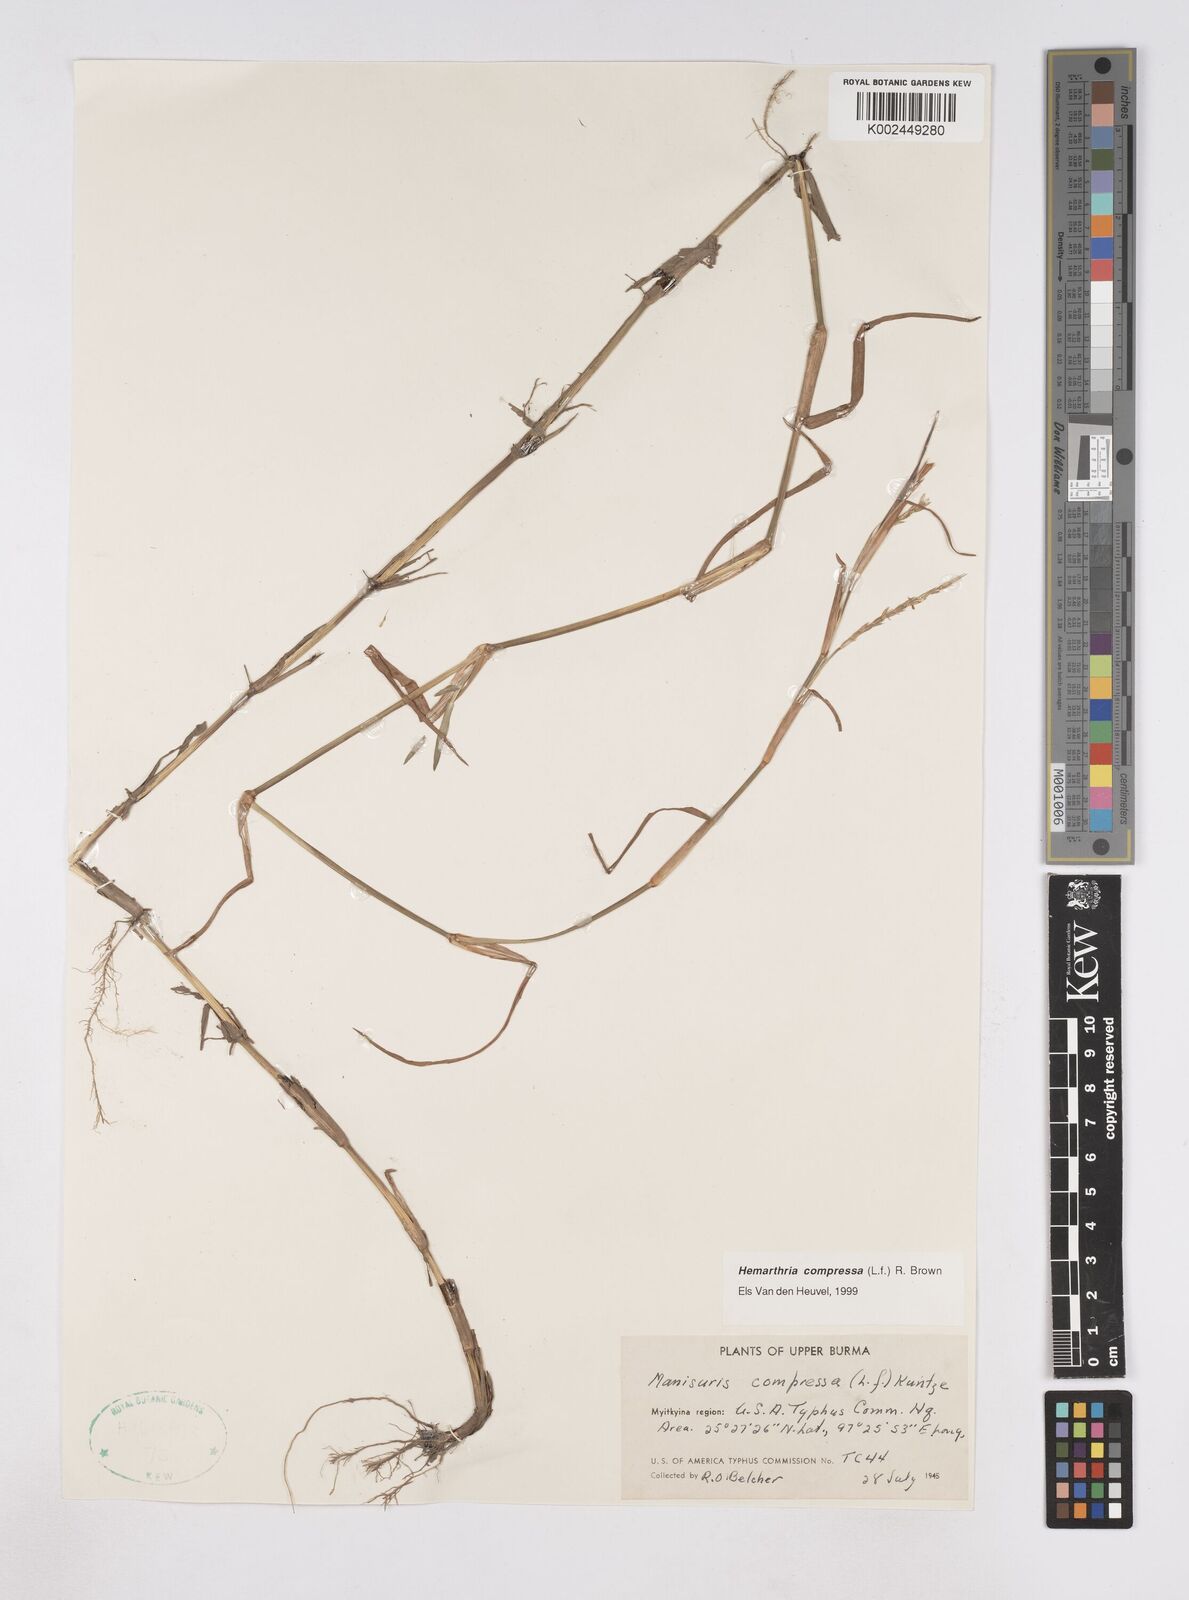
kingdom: Plantae
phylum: Tracheophyta
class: Liliopsida
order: Poales
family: Poaceae
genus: Hemarthria
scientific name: Hemarthria compressa
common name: Whip grass
